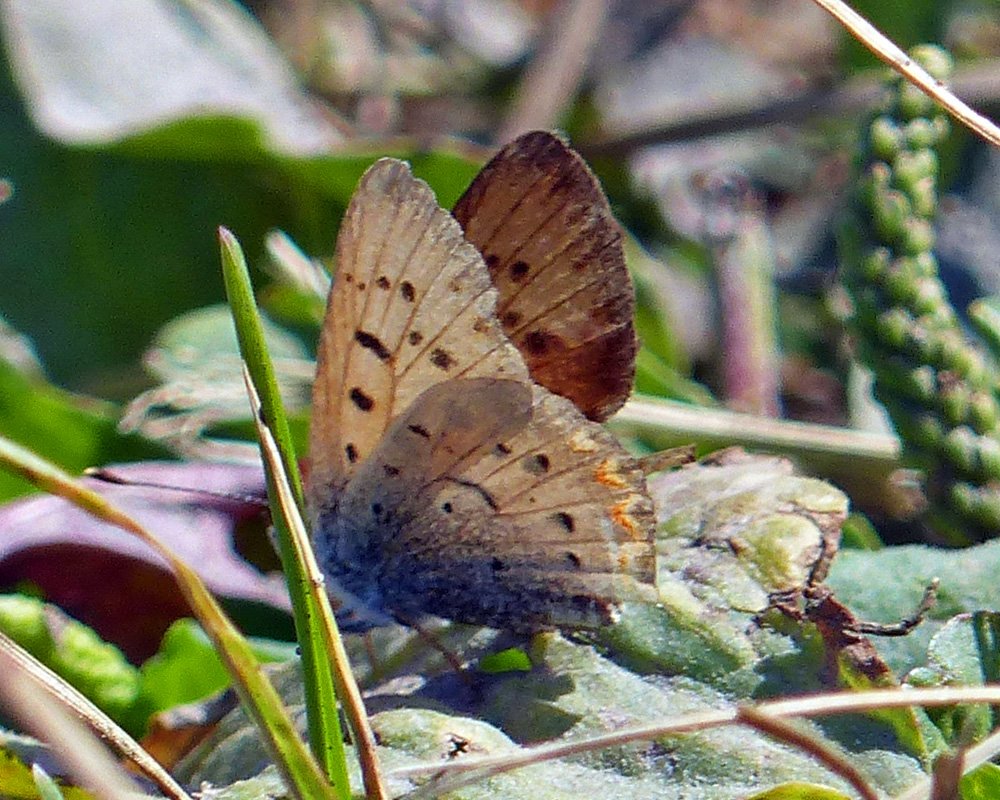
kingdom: Animalia
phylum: Arthropoda
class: Insecta
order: Lepidoptera
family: Sesiidae
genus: Sesia
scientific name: Sesia Lycaena helloides
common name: Purplish Copper
